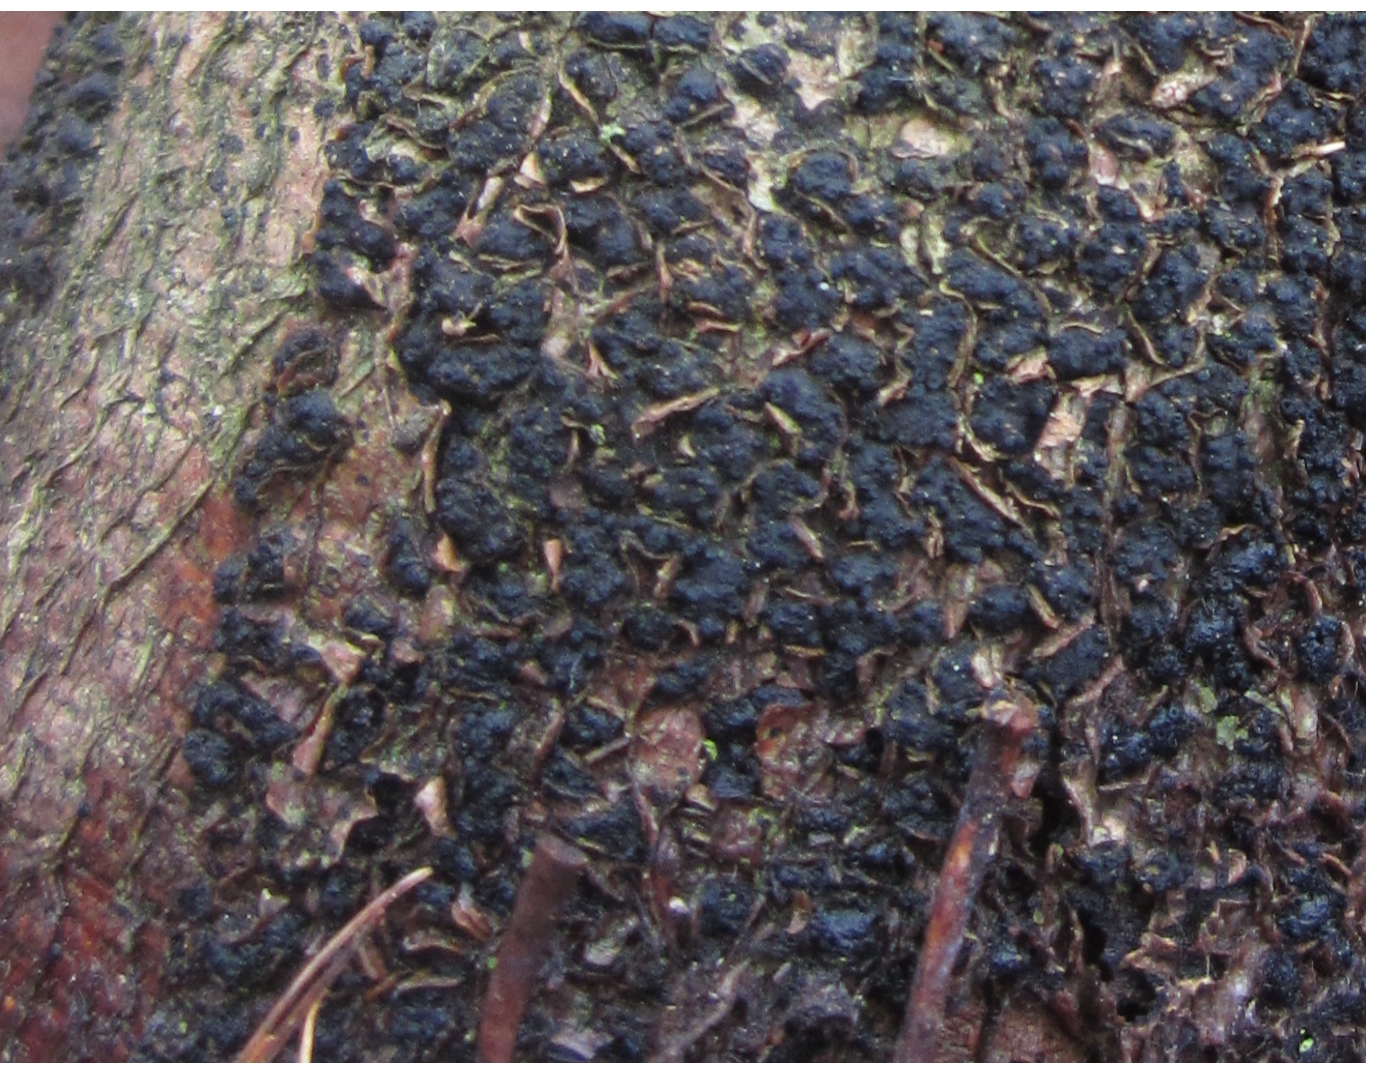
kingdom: Fungi
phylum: Ascomycota
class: Sordariomycetes
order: Xylariales
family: Melogrammataceae
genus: Melogramma
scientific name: Melogramma spiniferum
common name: bøgefod-kulhals
